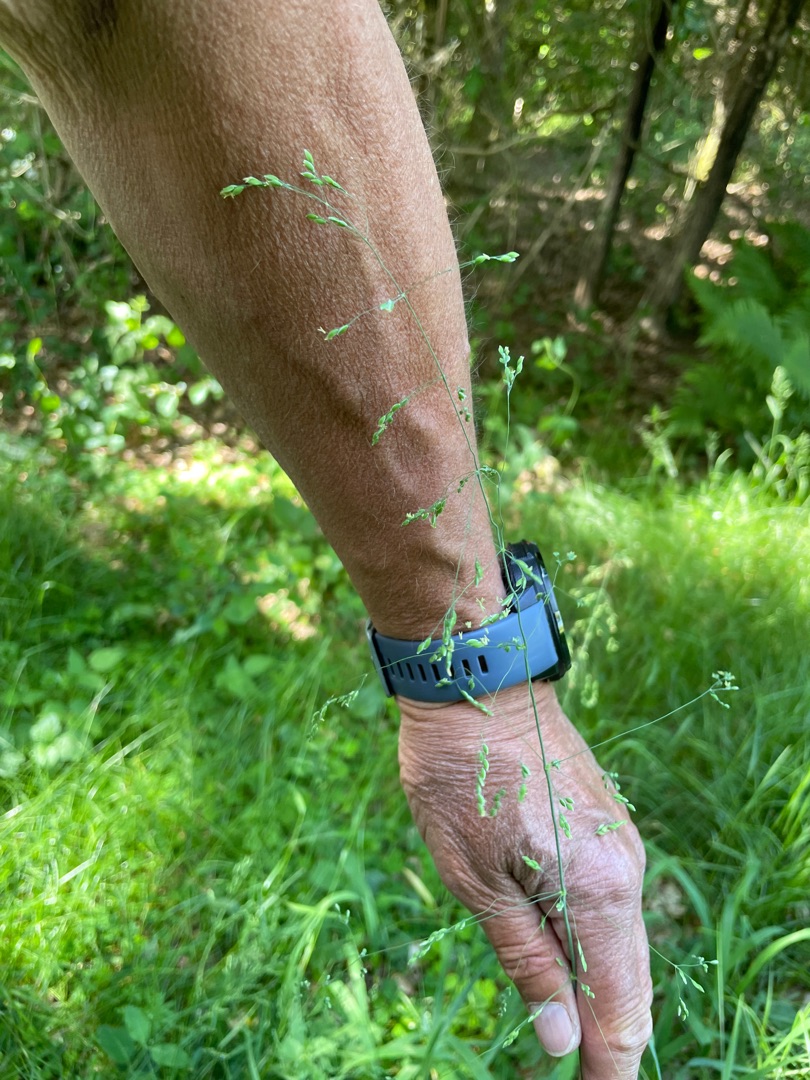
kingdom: Plantae
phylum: Tracheophyta
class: Liliopsida
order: Poales
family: Poaceae
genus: Milium
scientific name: Milium effusum
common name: Miliegræs
